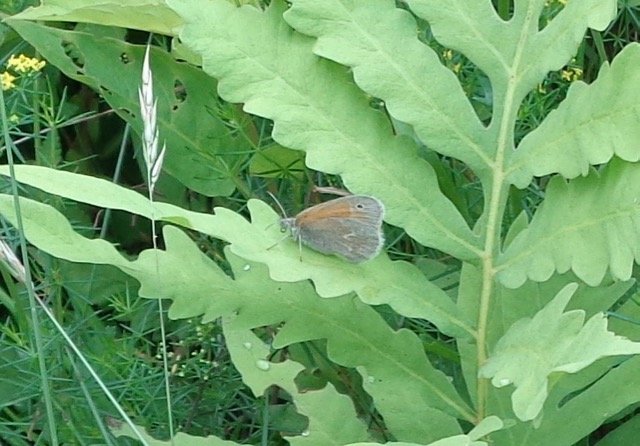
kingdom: Animalia
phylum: Arthropoda
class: Insecta
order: Lepidoptera
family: Nymphalidae
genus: Coenonympha
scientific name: Coenonympha tullia
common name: Large Heath
